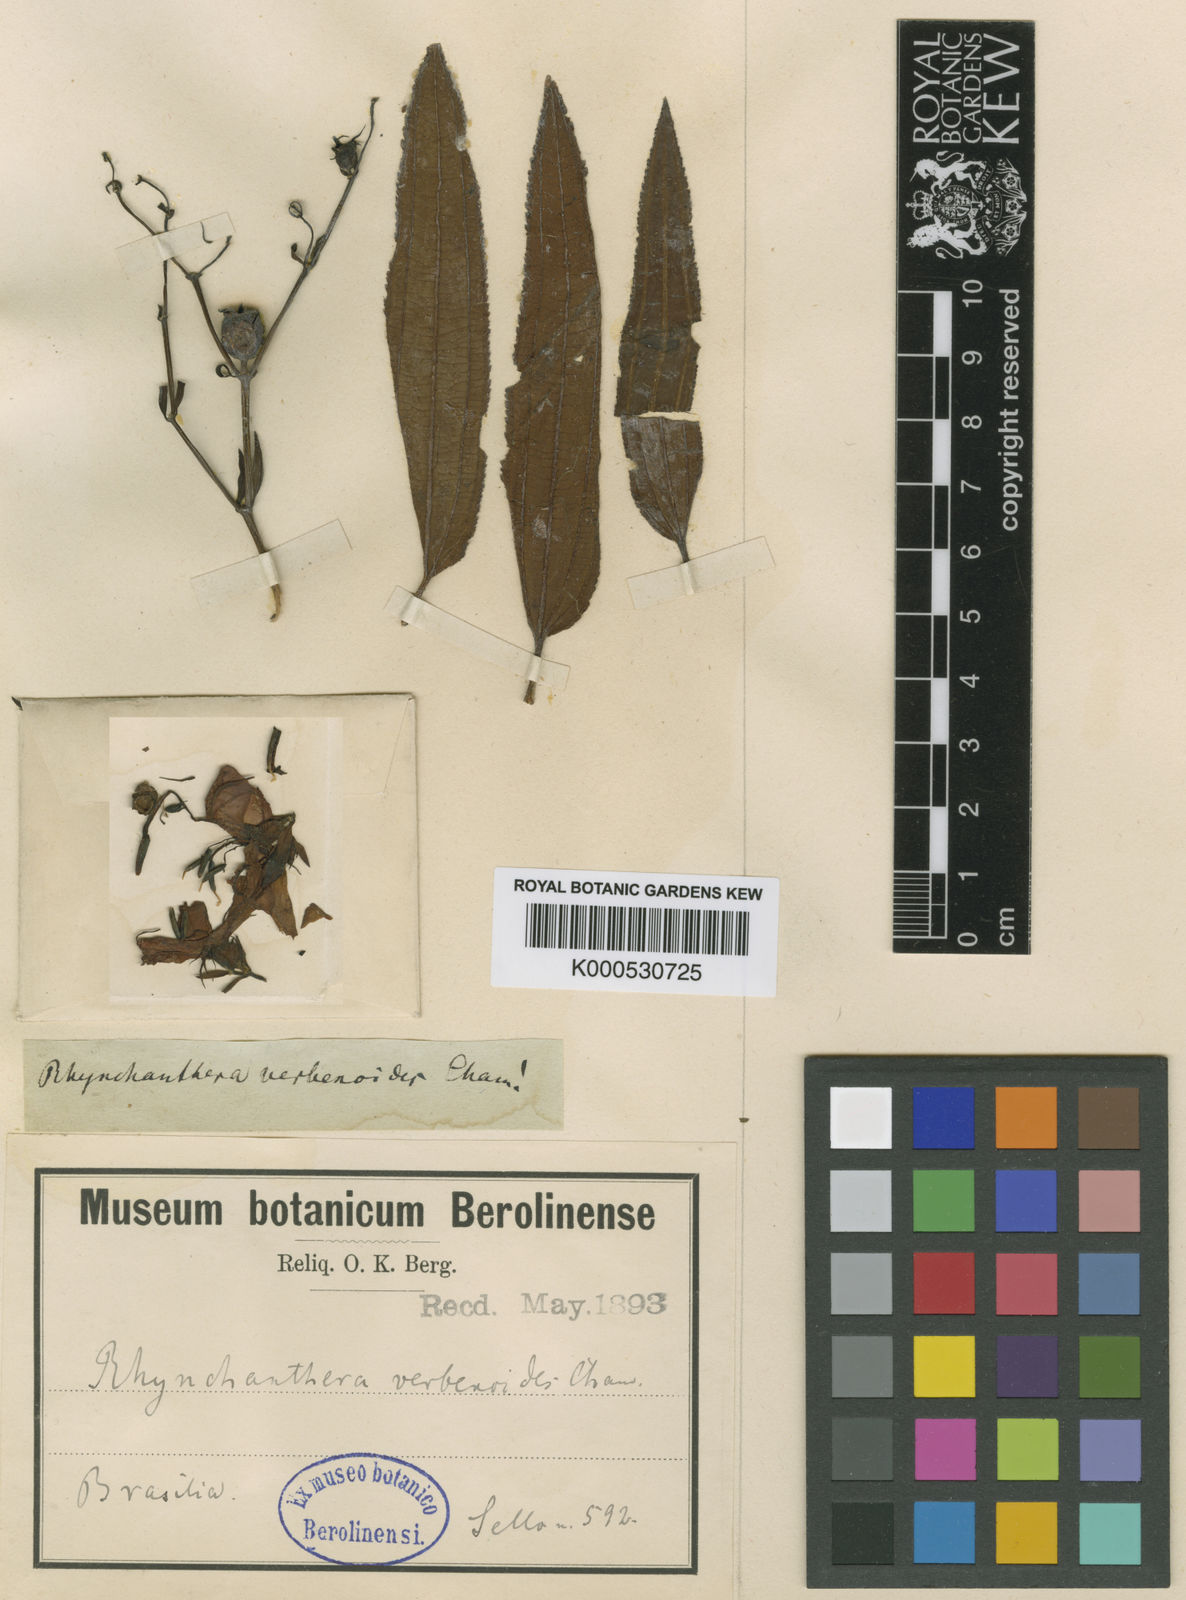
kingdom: Plantae
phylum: Tracheophyta
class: Magnoliopsida
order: Myrtales
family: Melastomataceae
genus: Rhynchanthera
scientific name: Rhynchanthera verbenoides
